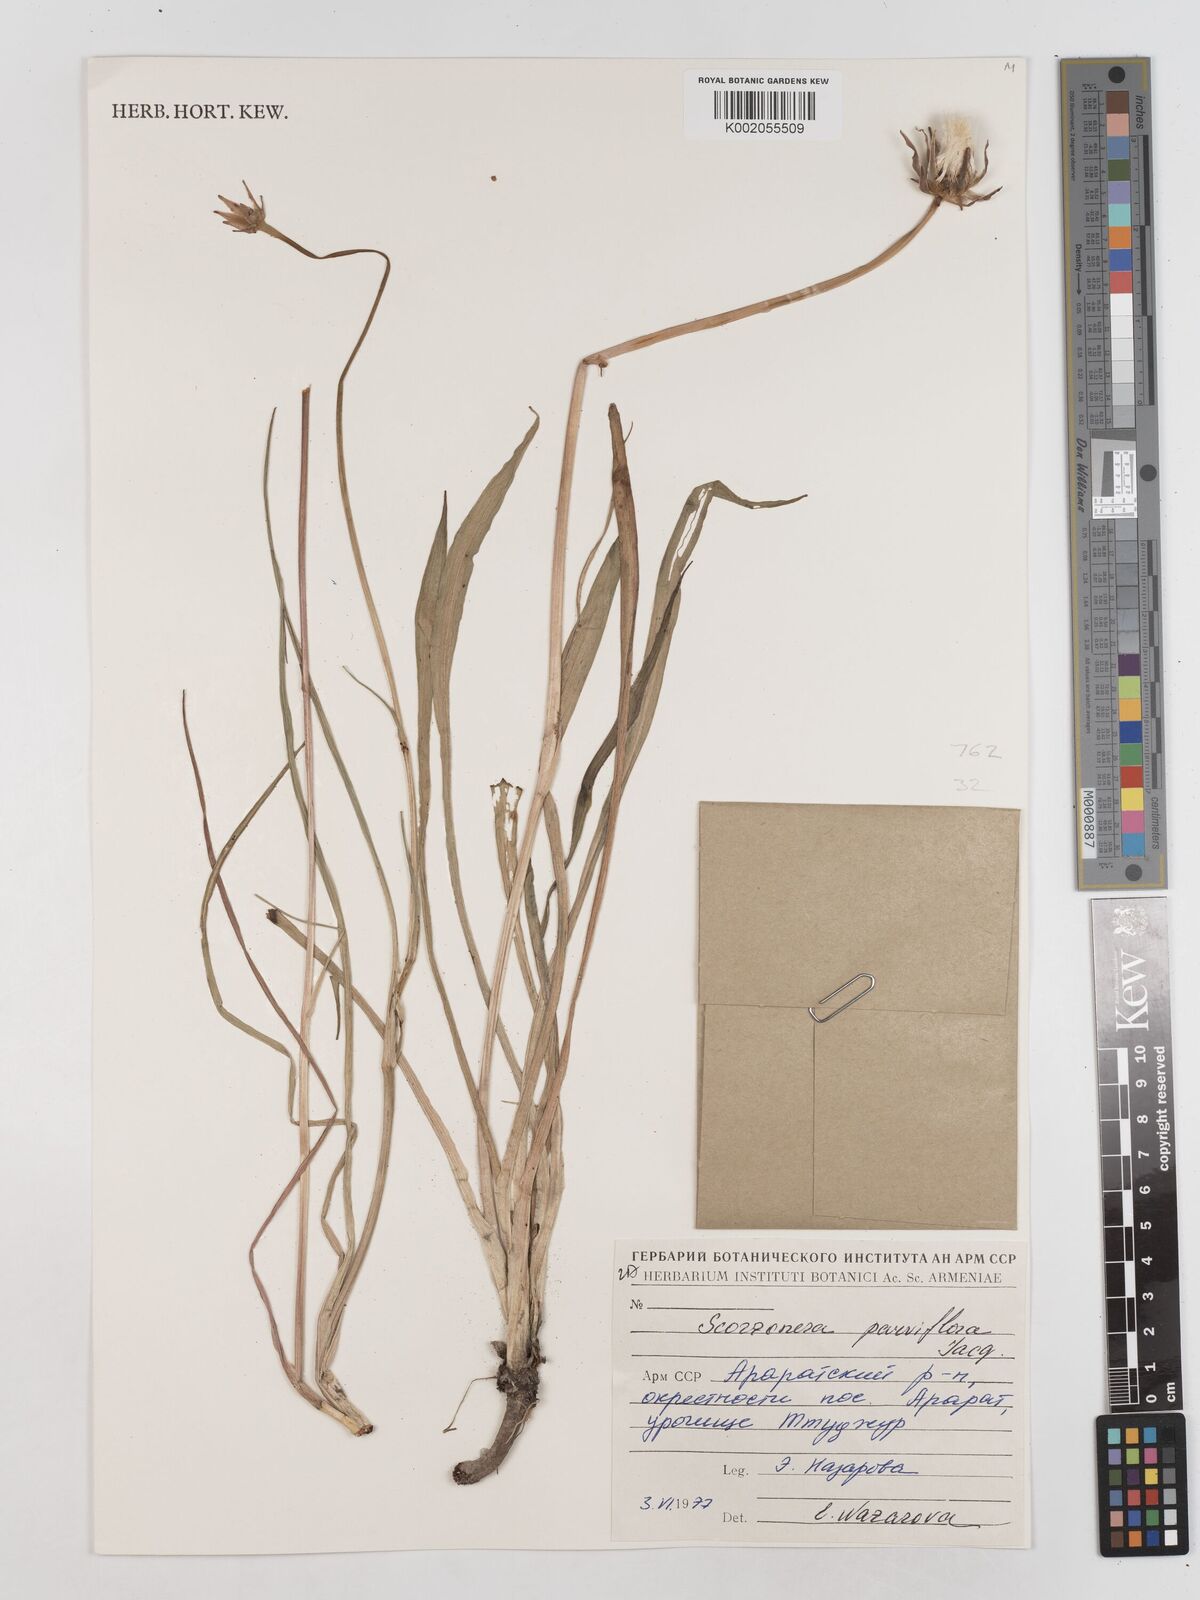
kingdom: Plantae
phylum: Tracheophyta
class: Magnoliopsida
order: Asterales
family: Asteraceae
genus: Scorzonera
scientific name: Scorzonera parviflora
